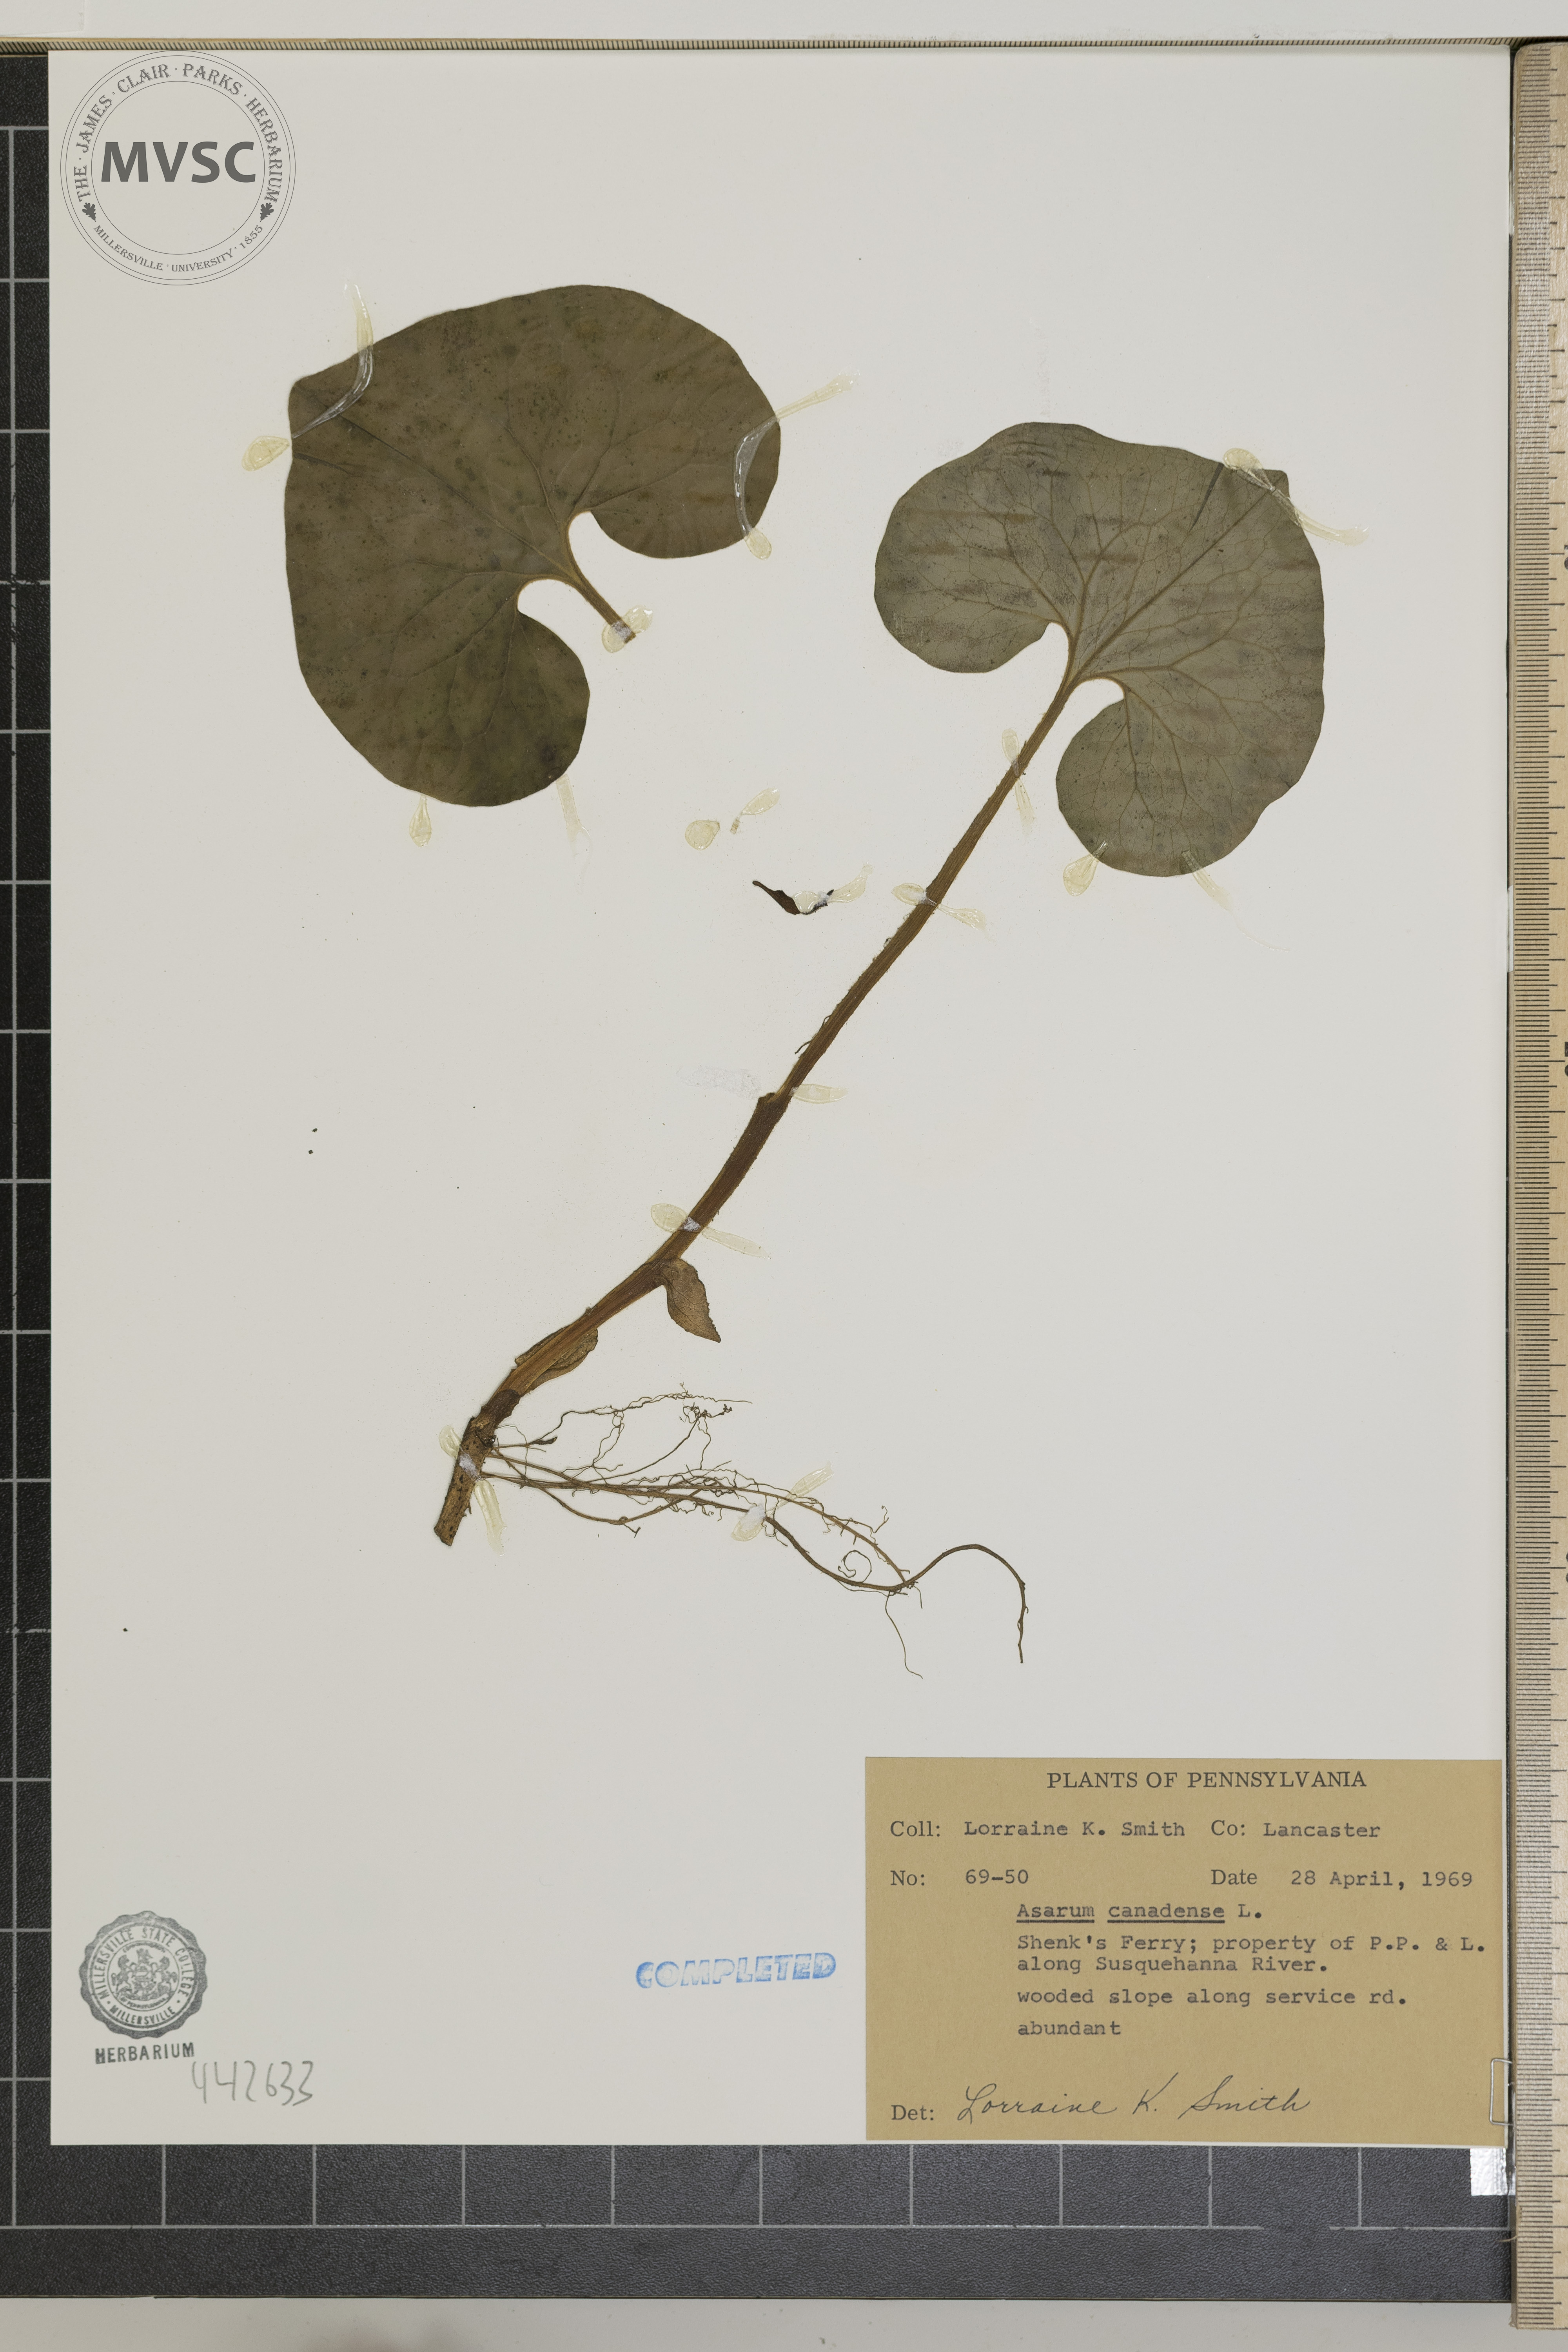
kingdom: Plantae
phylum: Tracheophyta
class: Magnoliopsida
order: Piperales
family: Aristolochiaceae
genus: Asarum
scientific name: Asarum canadense
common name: Wild ginger
